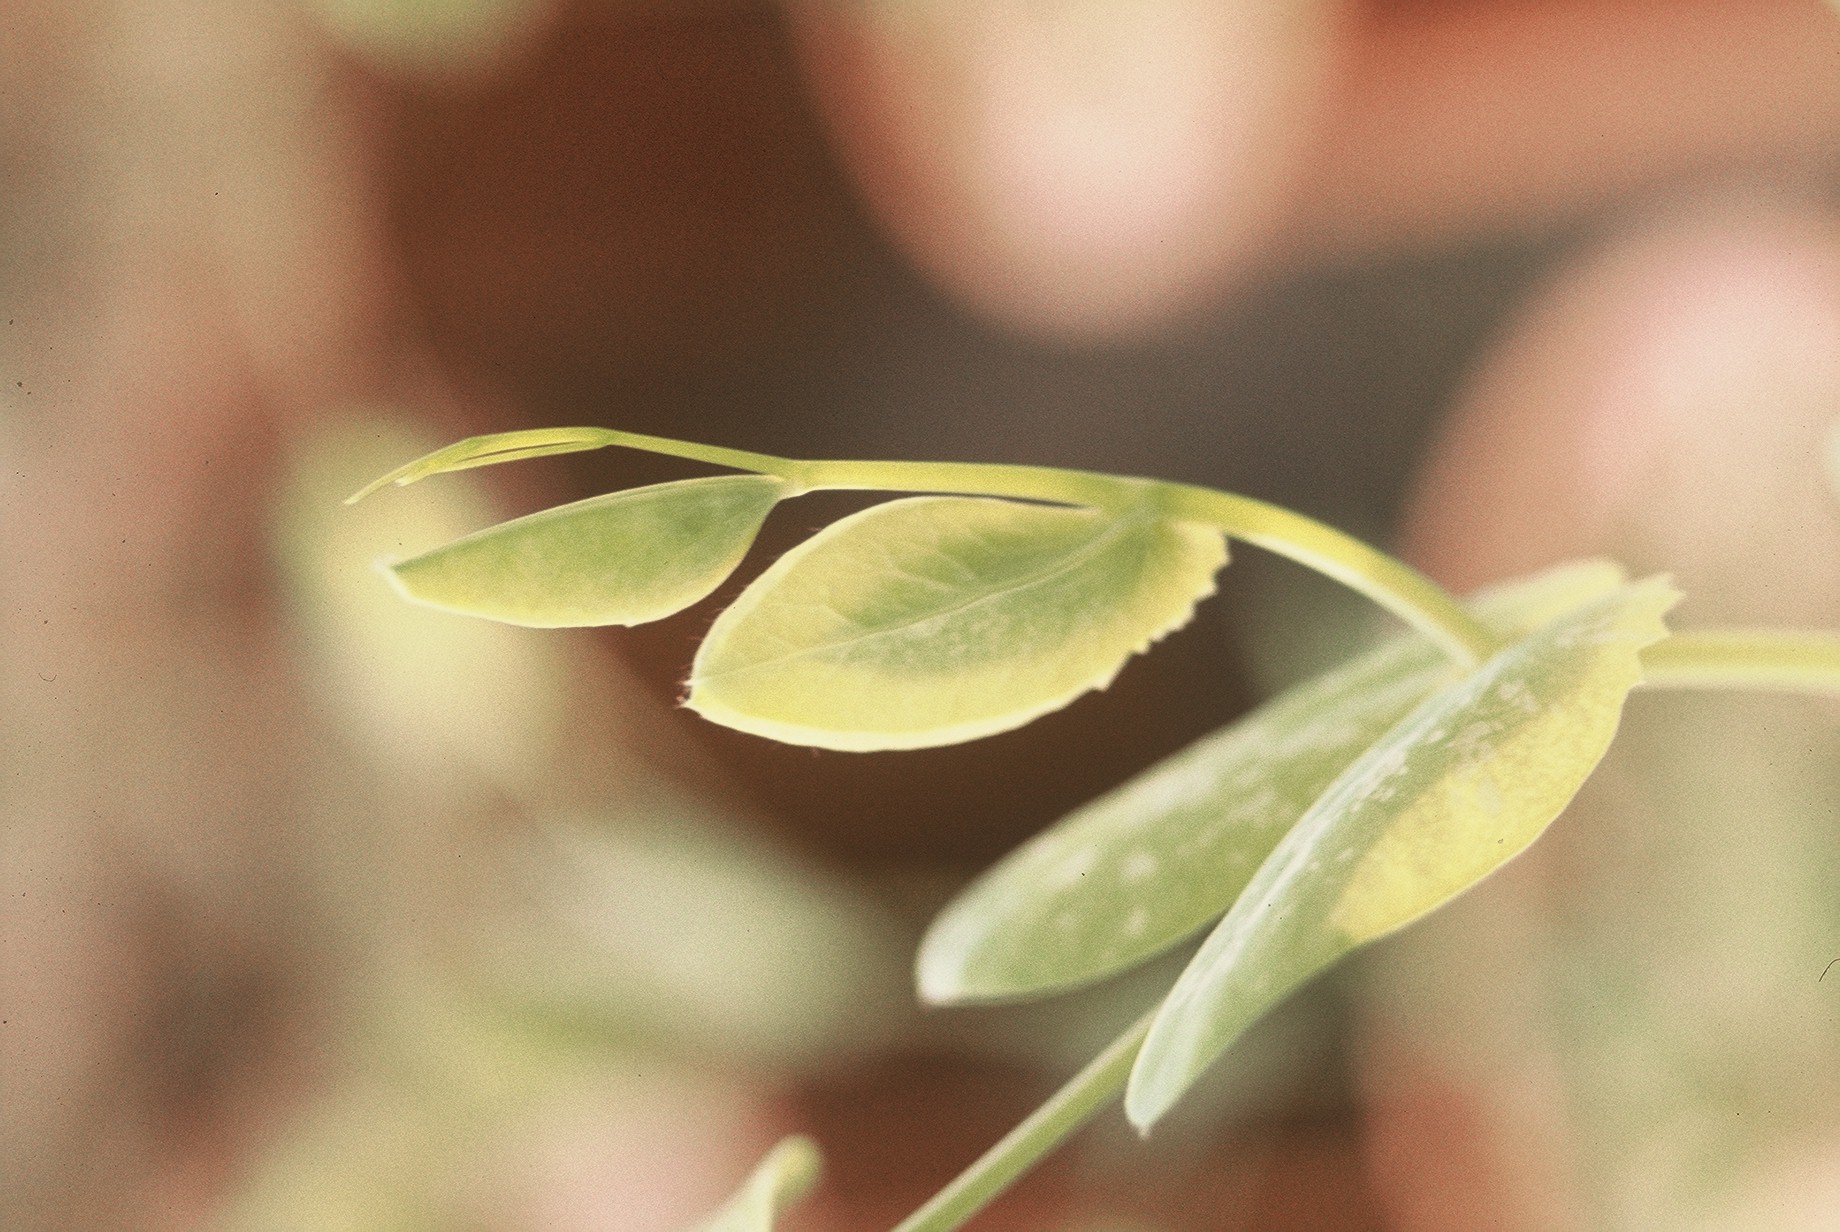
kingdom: Plantae
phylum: Tracheophyta
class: Magnoliopsida
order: Fabales
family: Fabaceae
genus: Lathyrus
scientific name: Lathyrus oleraceus
